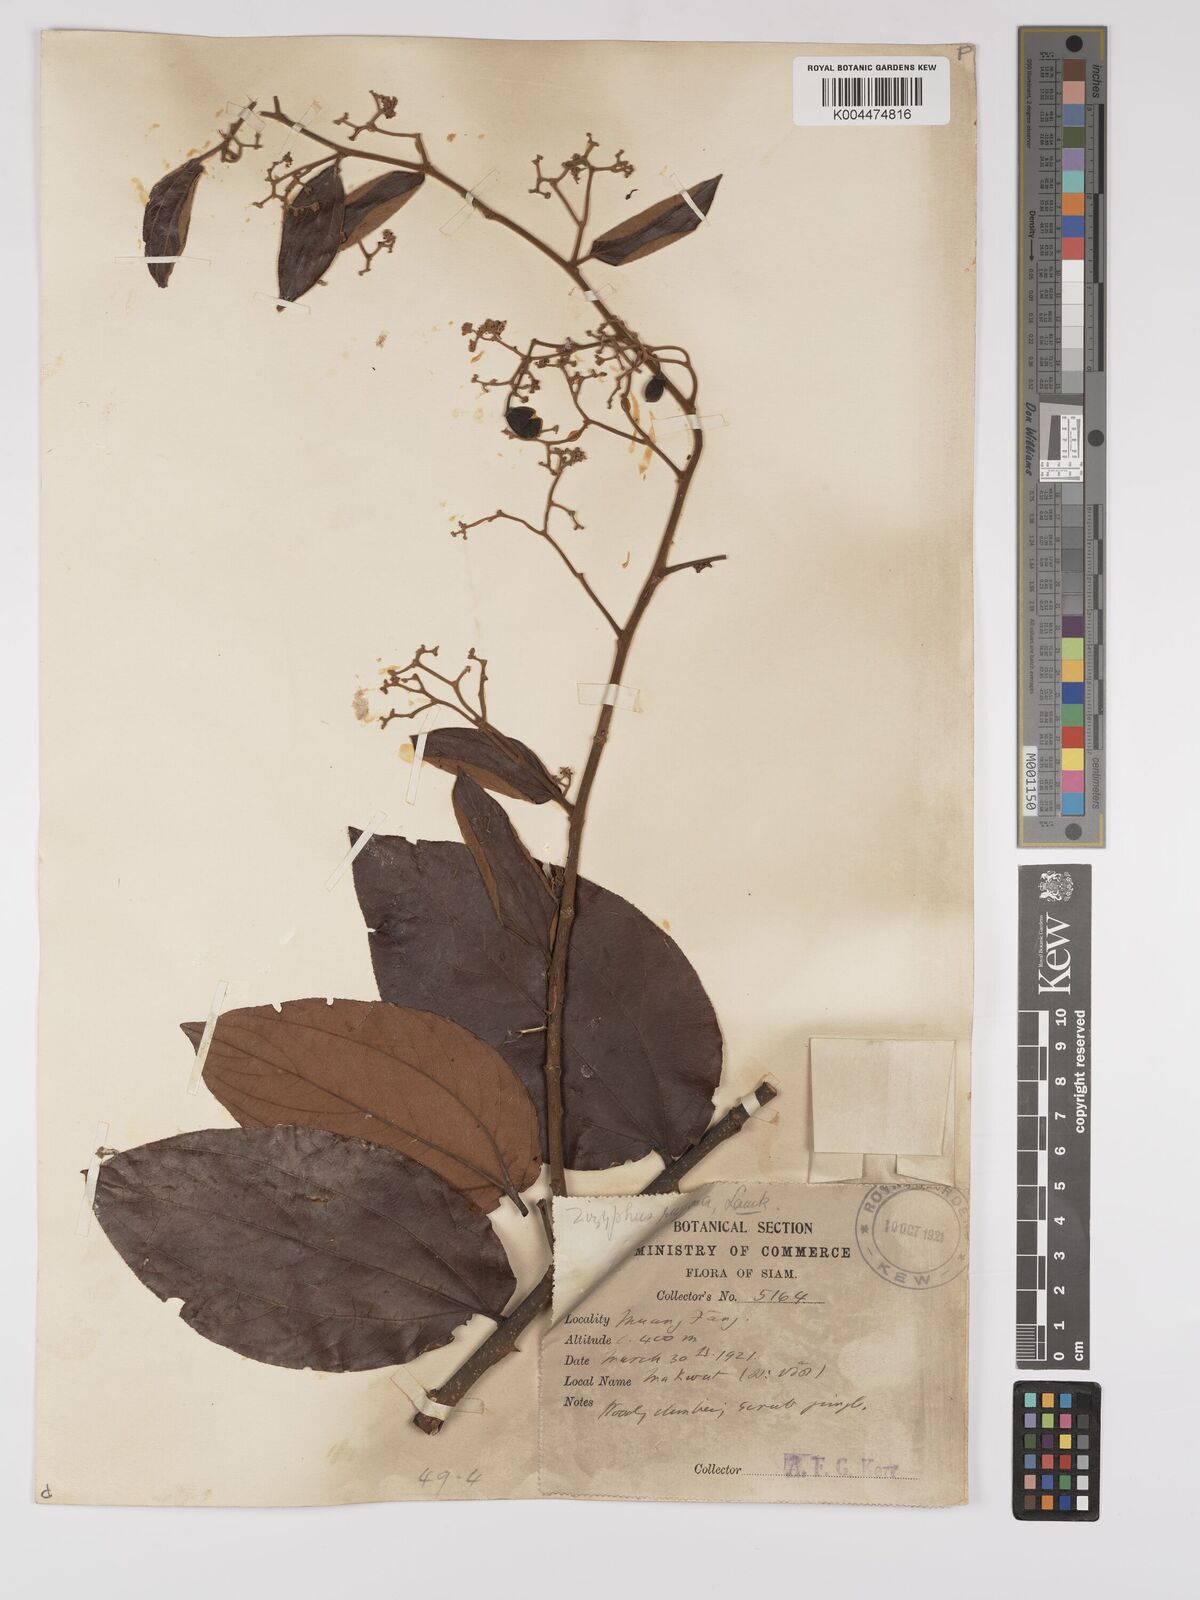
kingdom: Plantae
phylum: Tracheophyta
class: Magnoliopsida
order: Rosales
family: Rhamnaceae
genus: Ziziphus
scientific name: Ziziphus rugosa
